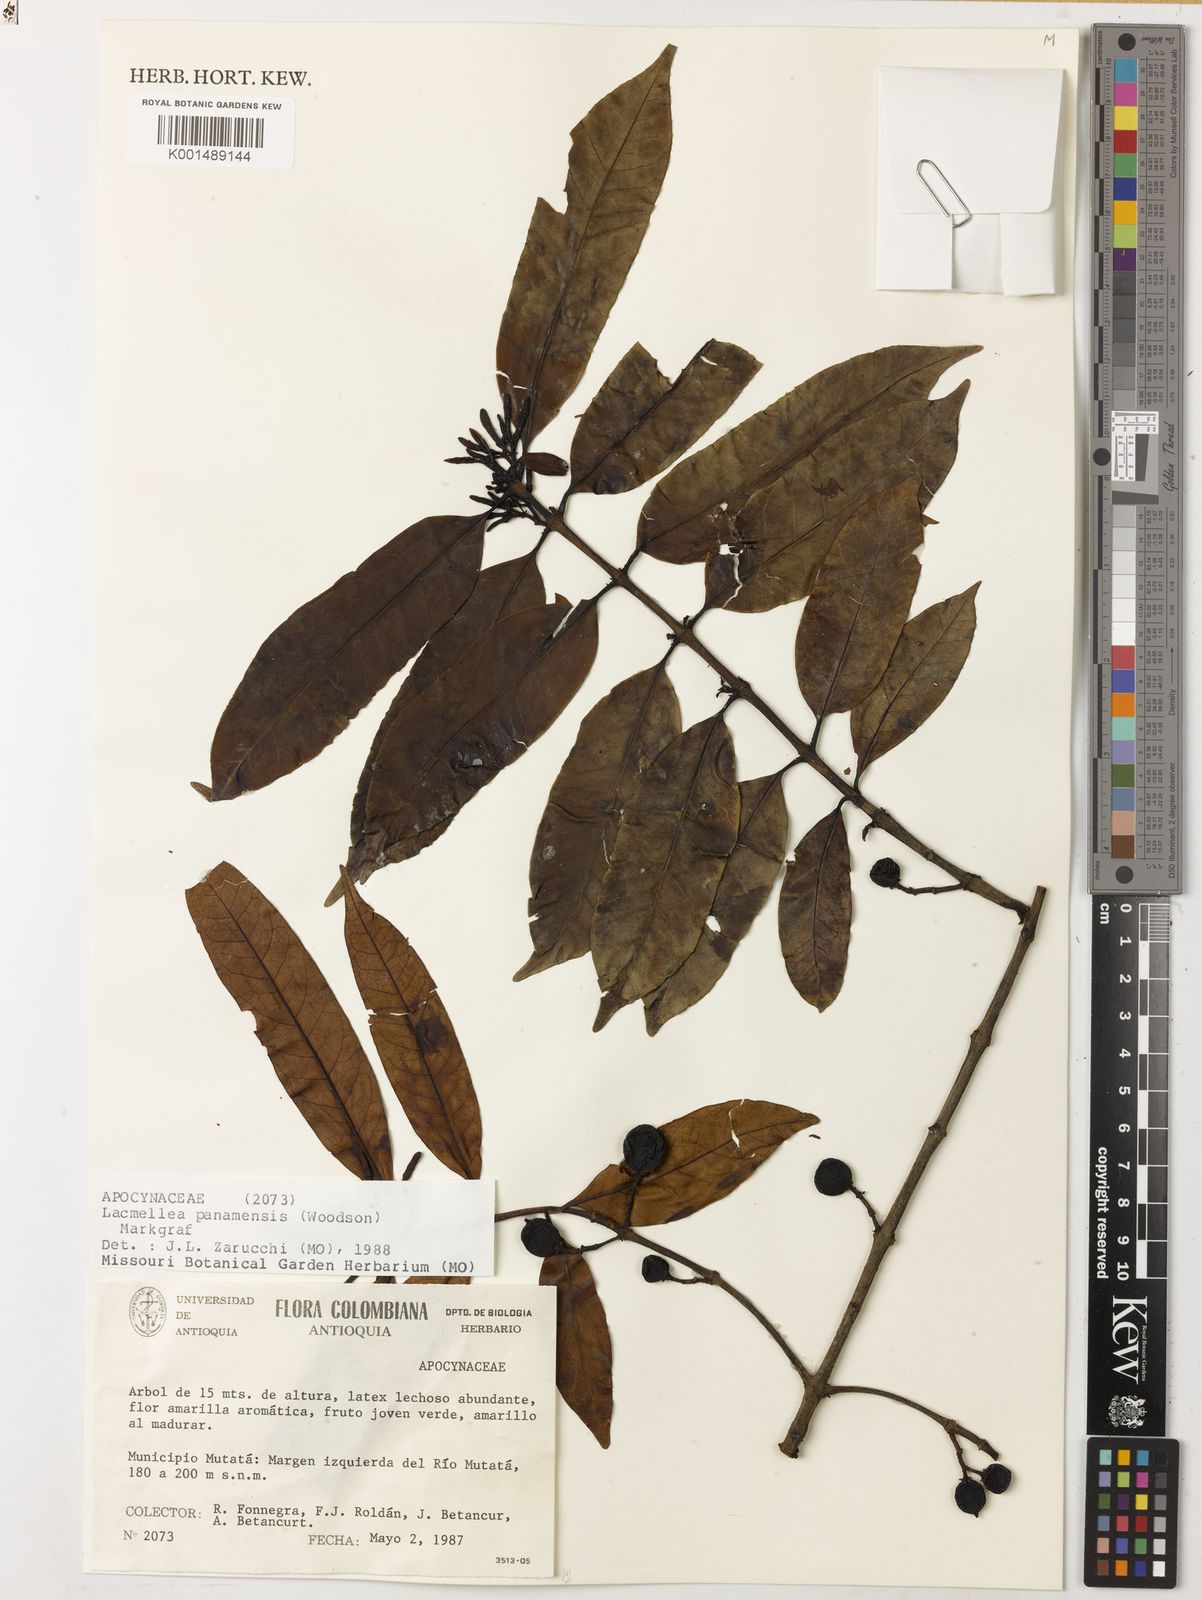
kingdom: Plantae
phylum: Tracheophyta
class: Magnoliopsida
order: Gentianales
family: Apocynaceae
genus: Lacmellea
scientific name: Lacmellea panamensis
